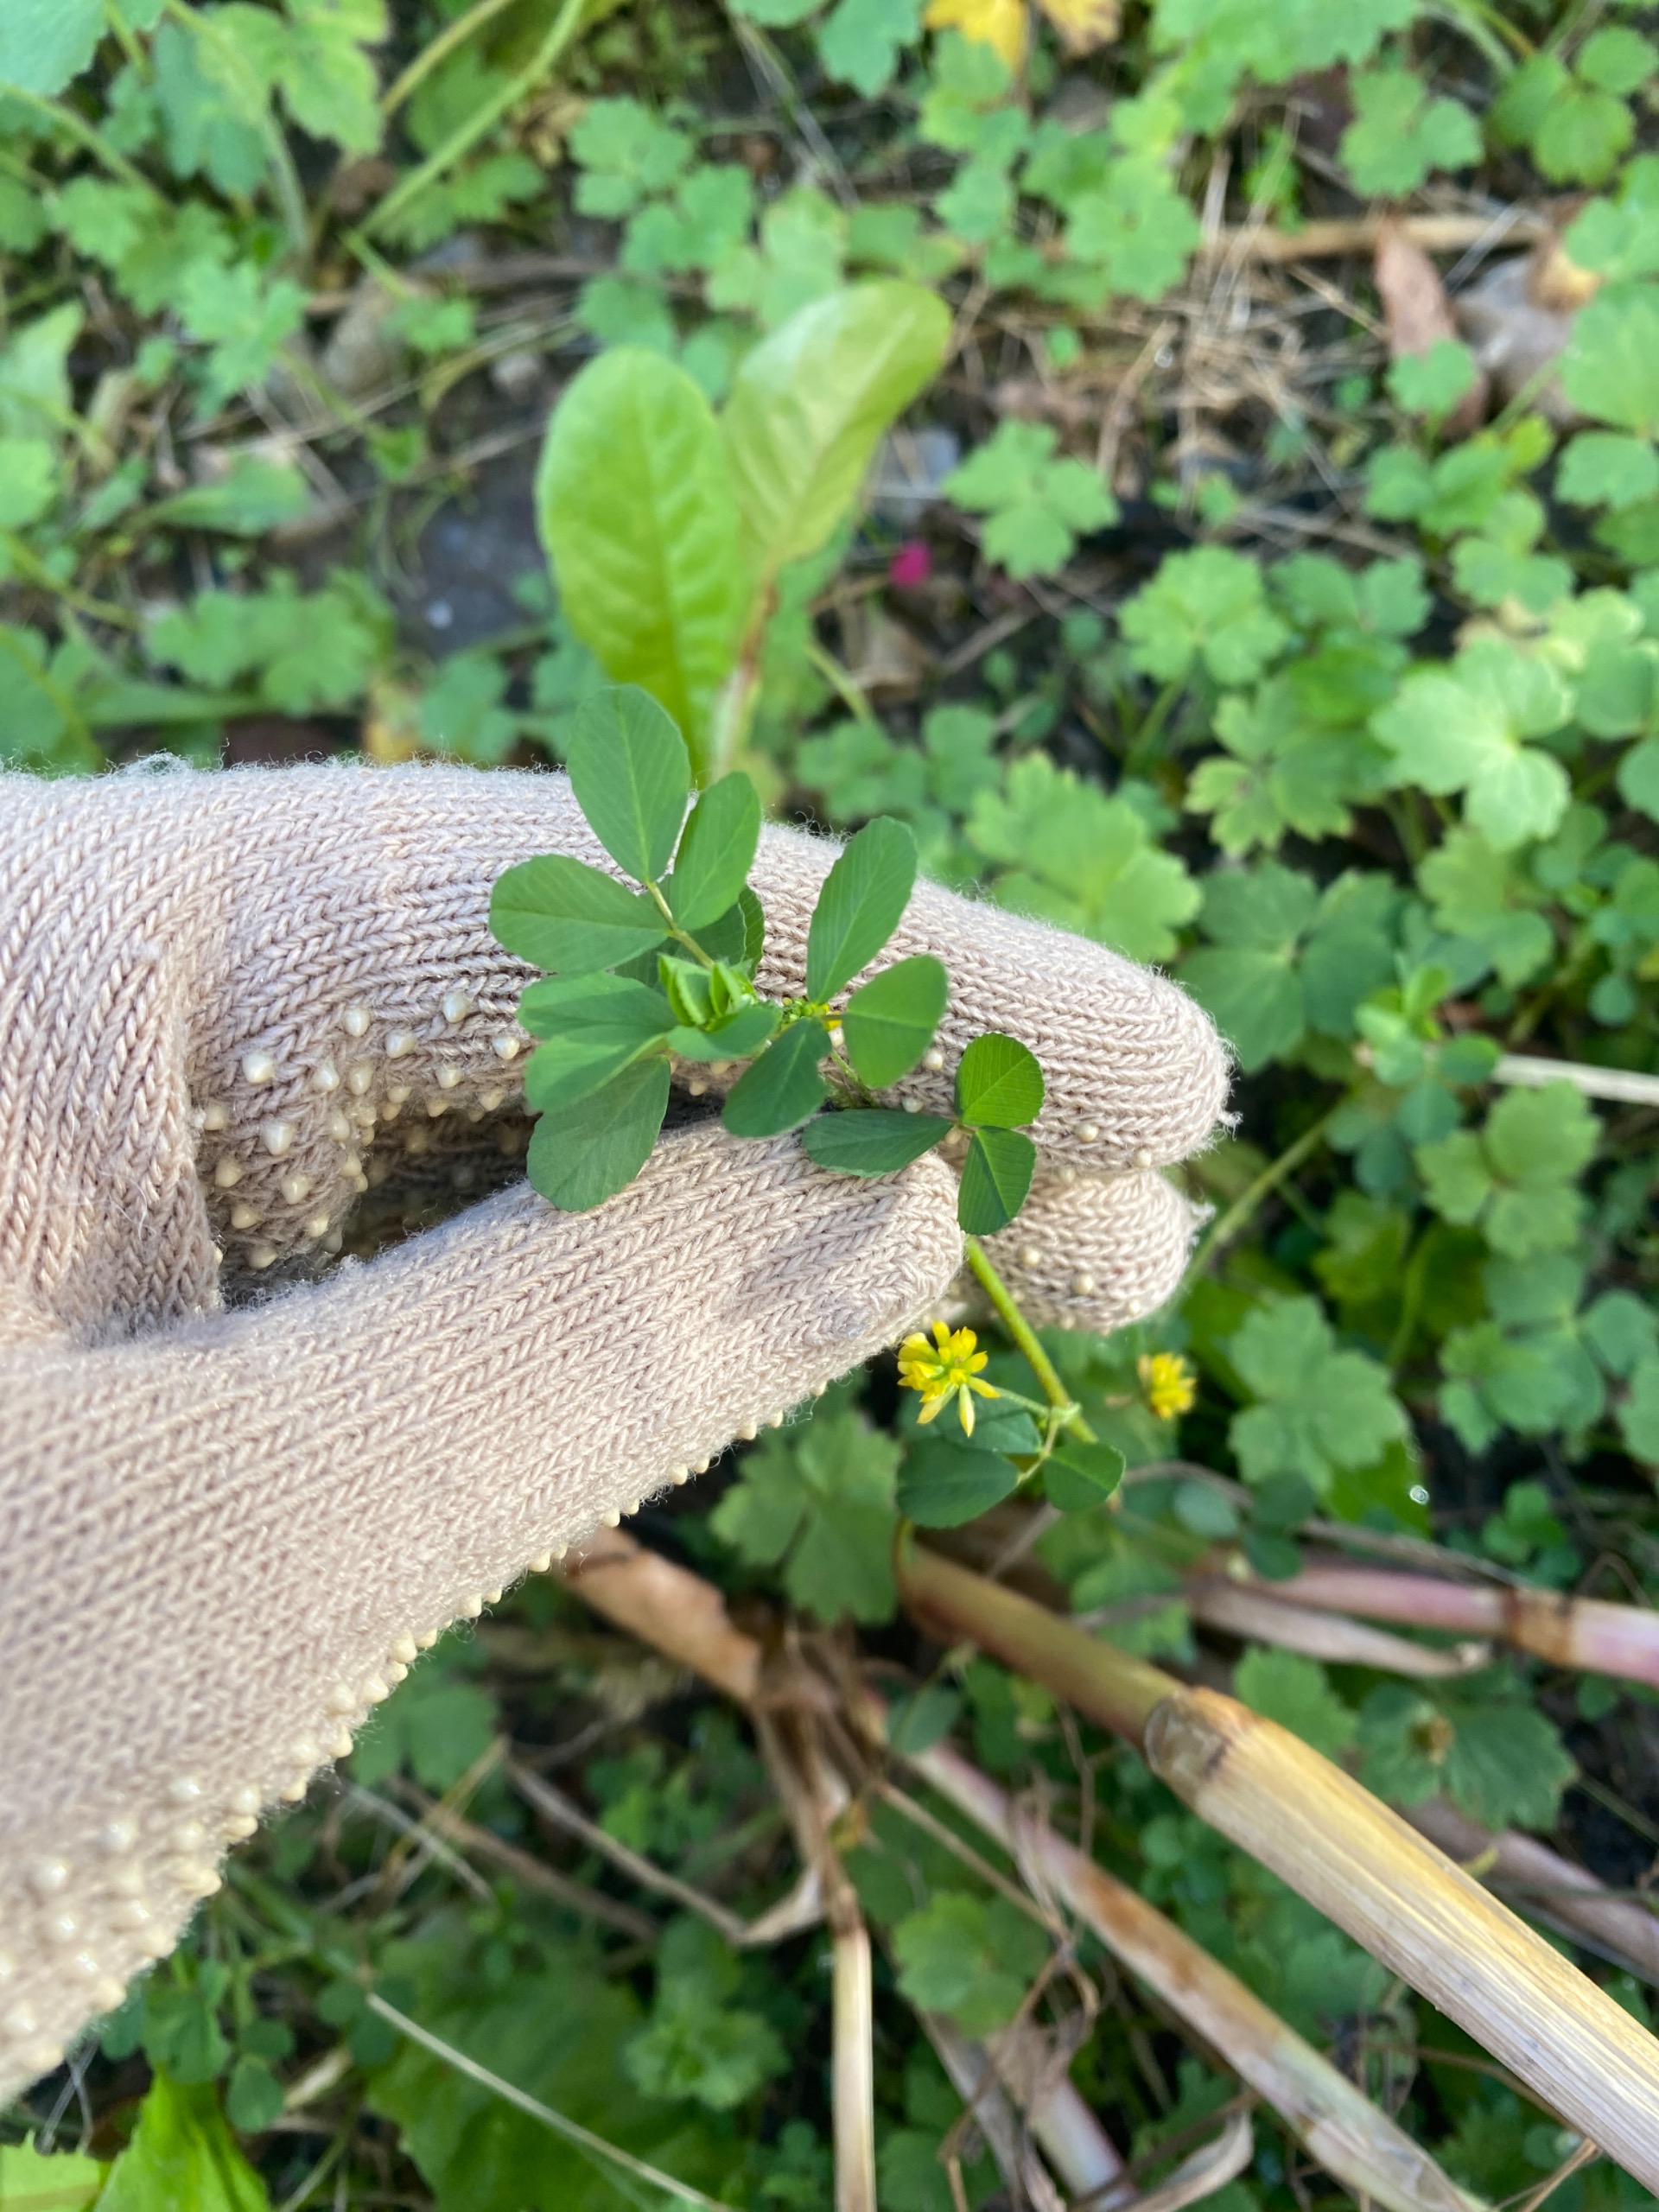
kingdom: Plantae
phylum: Tracheophyta
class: Magnoliopsida
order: Fabales
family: Fabaceae
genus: Trifolium
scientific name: Trifolium dubium
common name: Fin kløver
